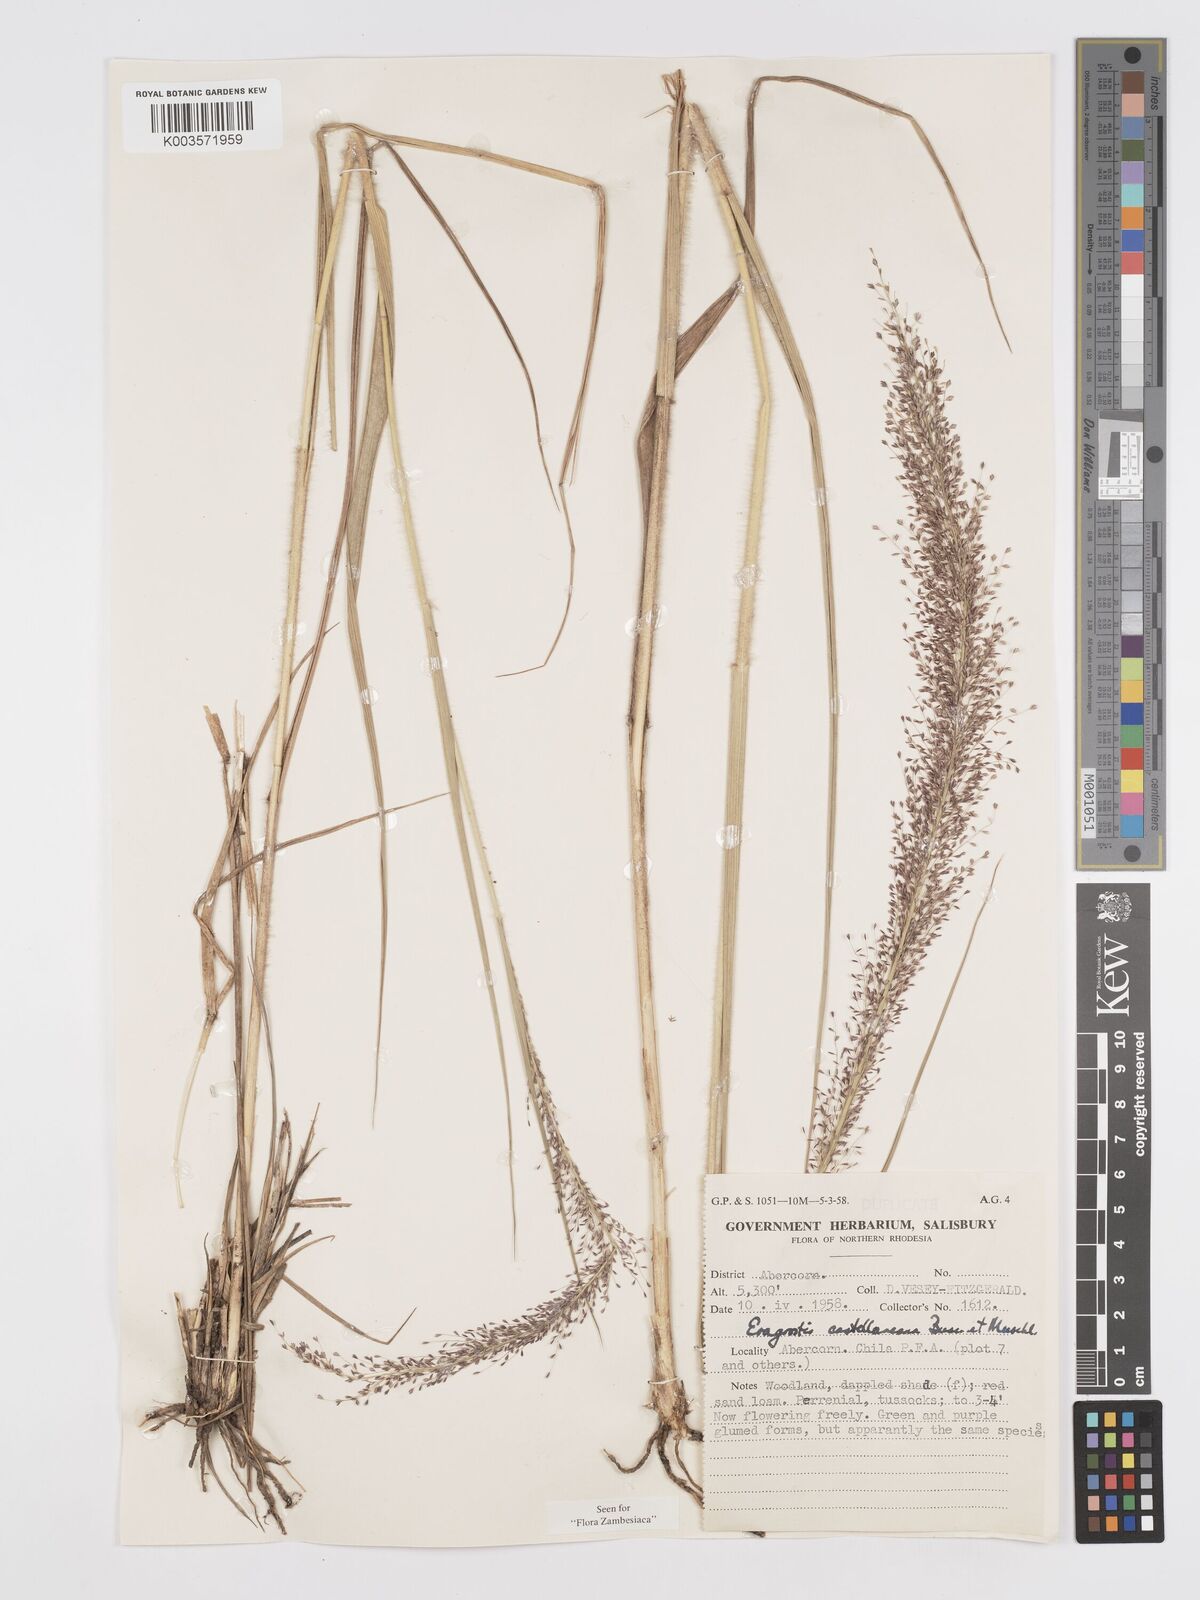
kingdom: Plantae
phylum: Tracheophyta
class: Liliopsida
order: Poales
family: Poaceae
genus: Eragrostis
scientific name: Eragrostis castellaneana
